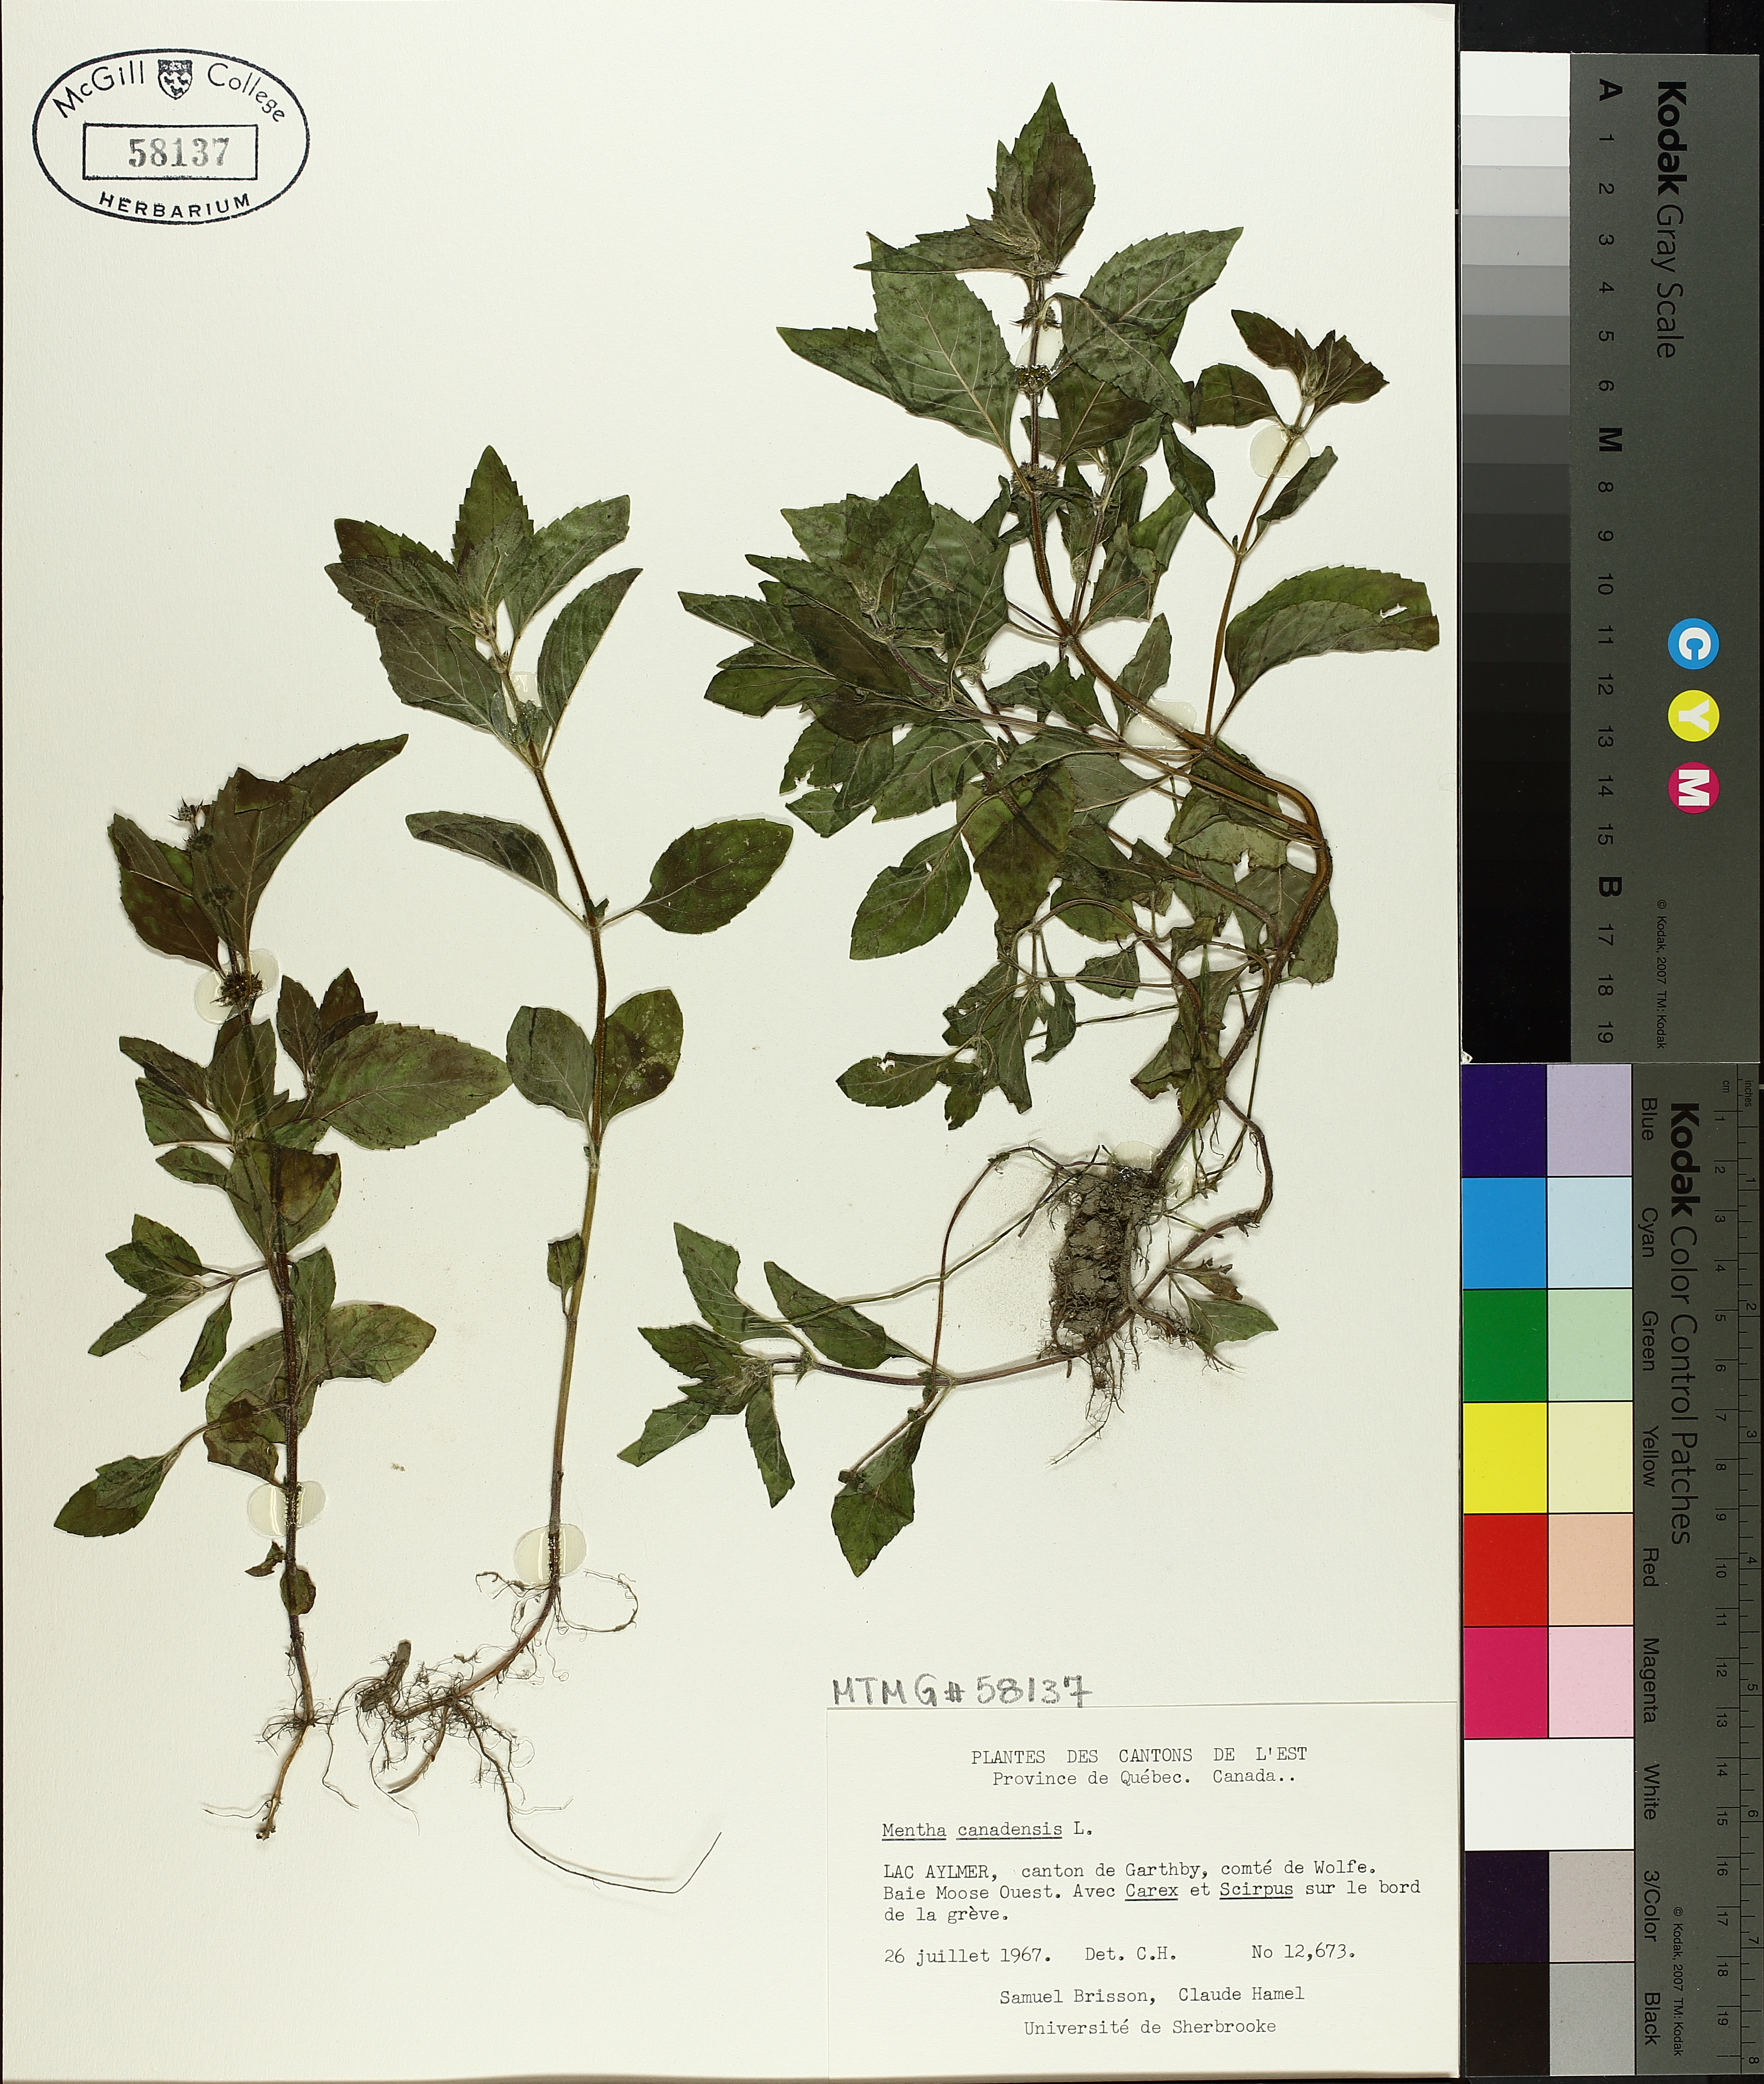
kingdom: Plantae
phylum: Tracheophyta
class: Magnoliopsida
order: Lamiales
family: Lamiaceae
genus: Mentha
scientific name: Mentha canadensis
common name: American corn mint
